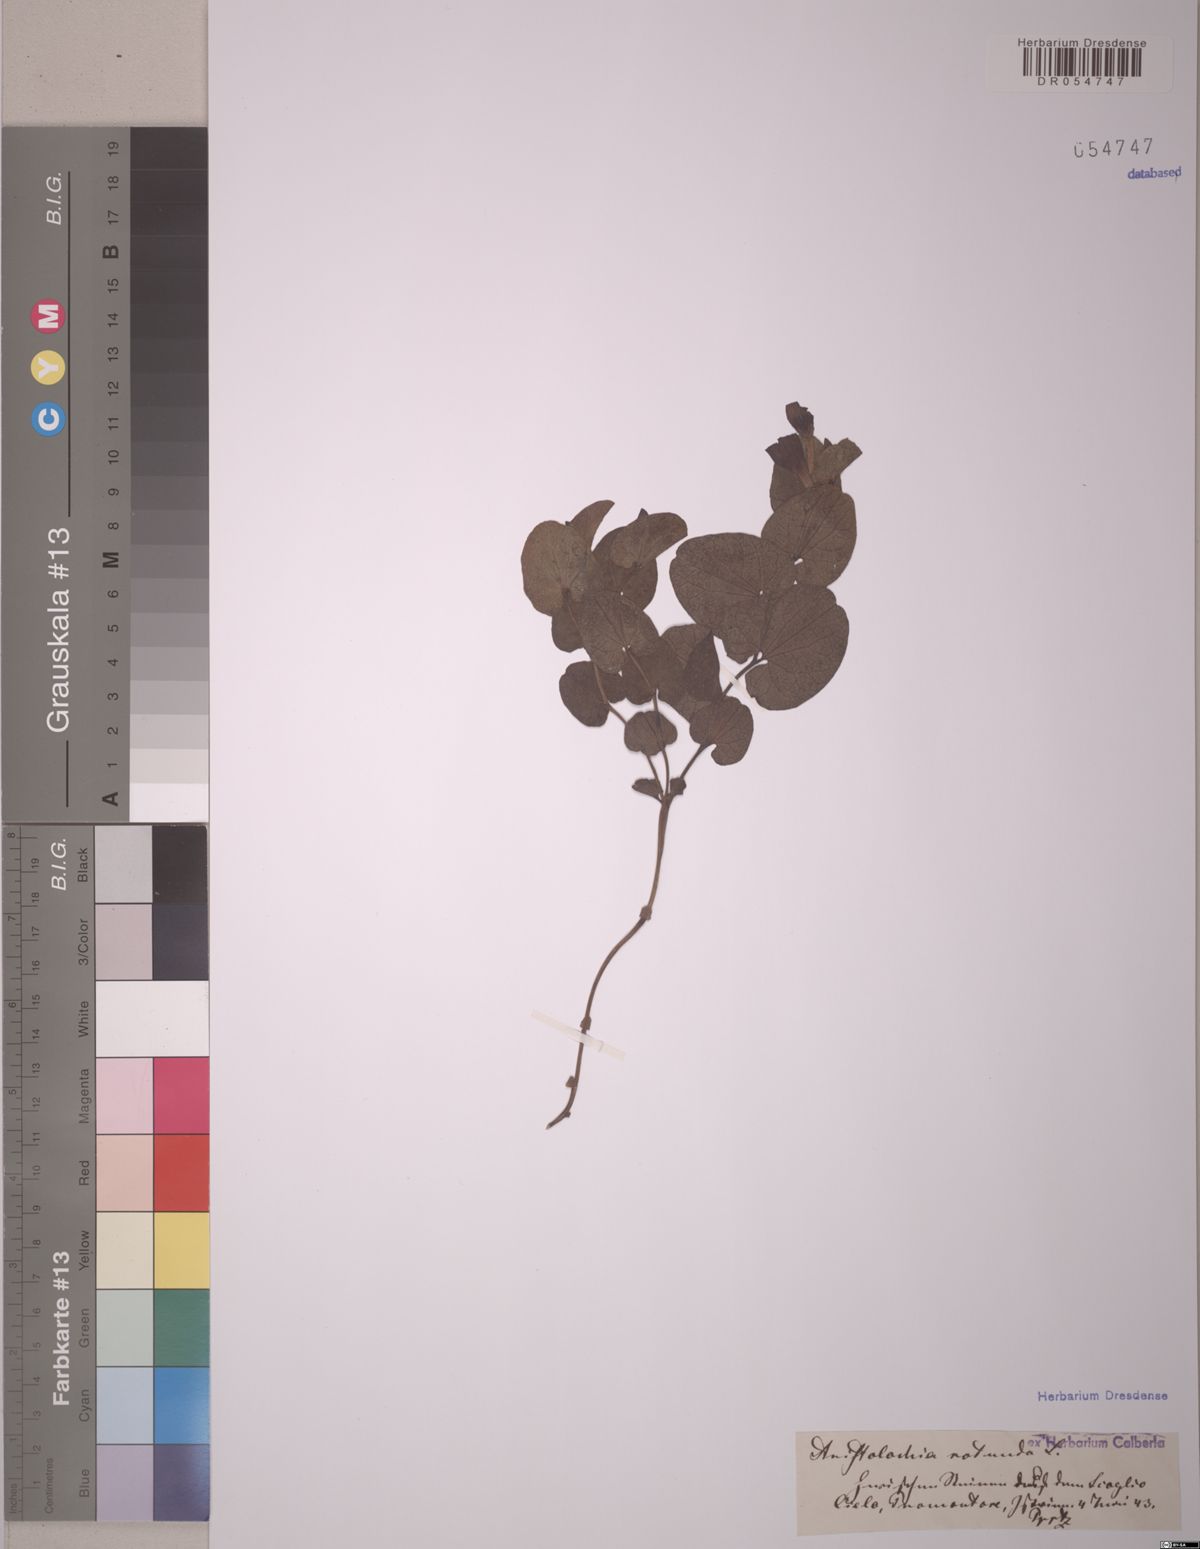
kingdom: Plantae
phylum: Tracheophyta
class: Magnoliopsida
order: Piperales
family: Aristolochiaceae
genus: Aristolochia
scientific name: Aristolochia rotunda
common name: Smearwort
